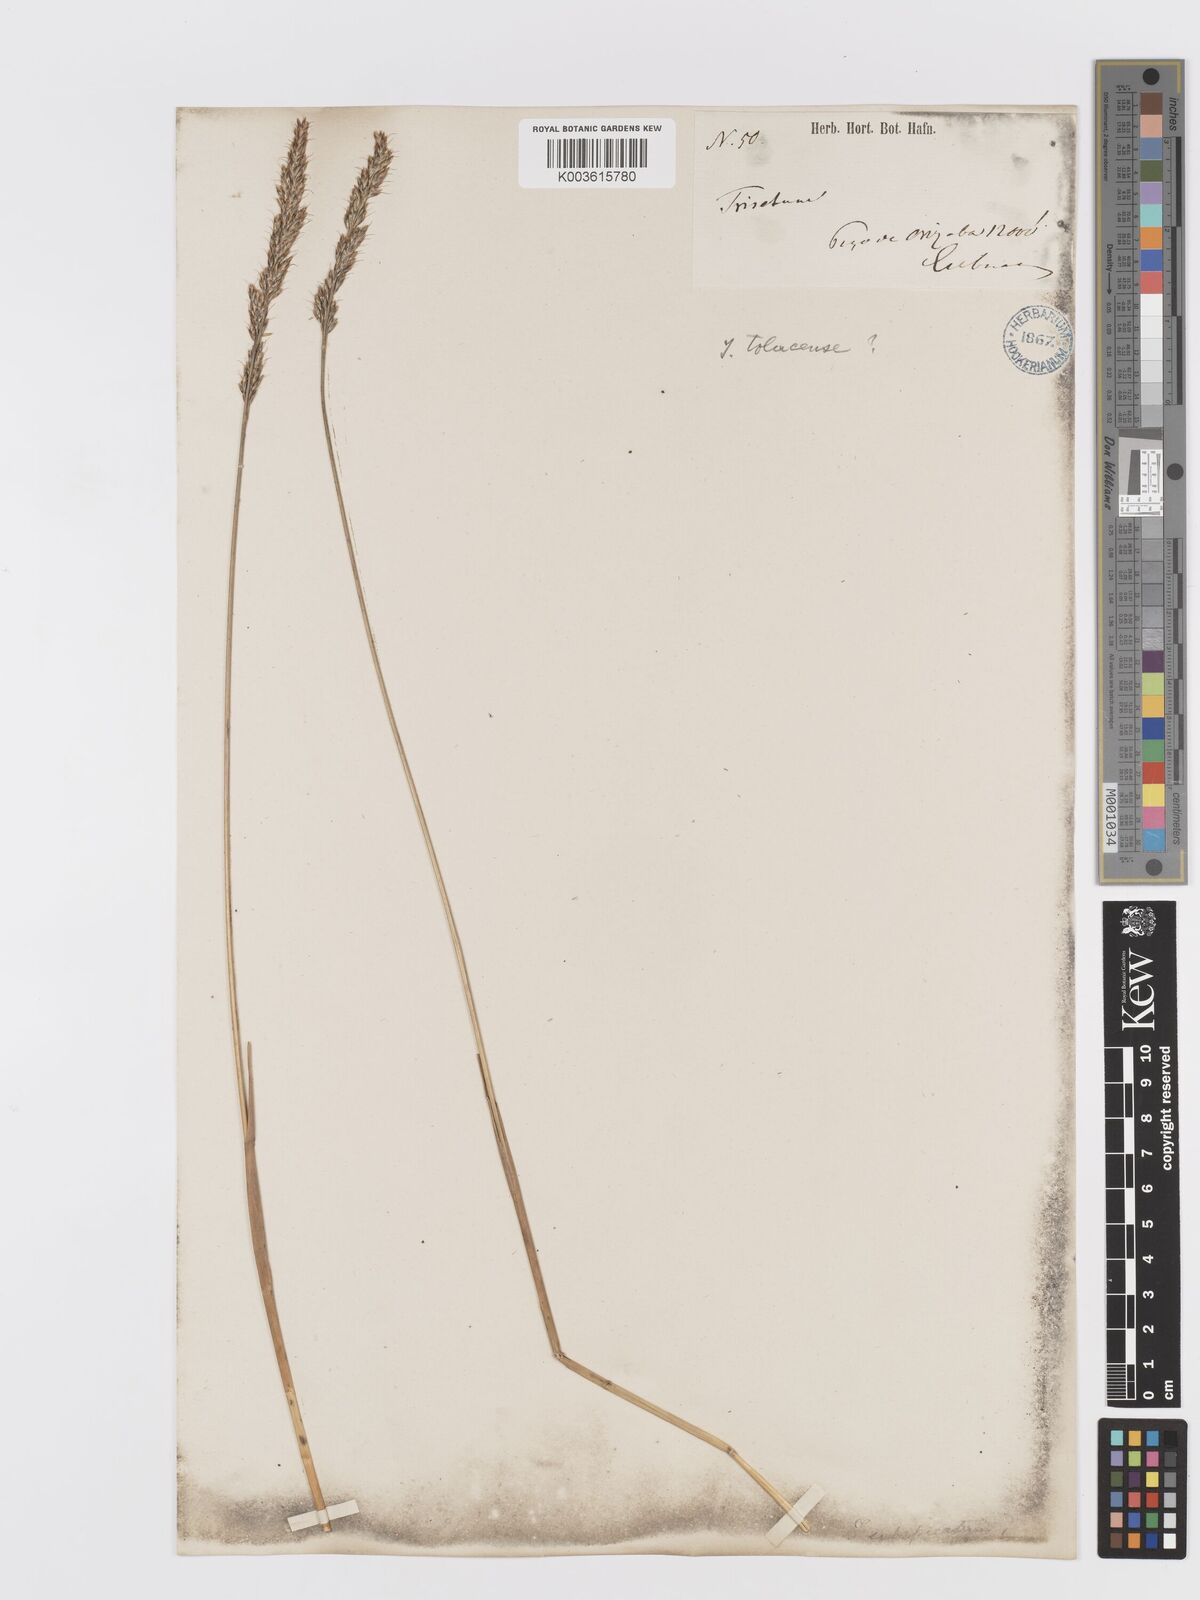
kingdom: Plantae
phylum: Tracheophyta
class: Liliopsida
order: Poales
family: Poaceae
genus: Koeleria
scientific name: Koeleria spicata
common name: Mountain trisetum
